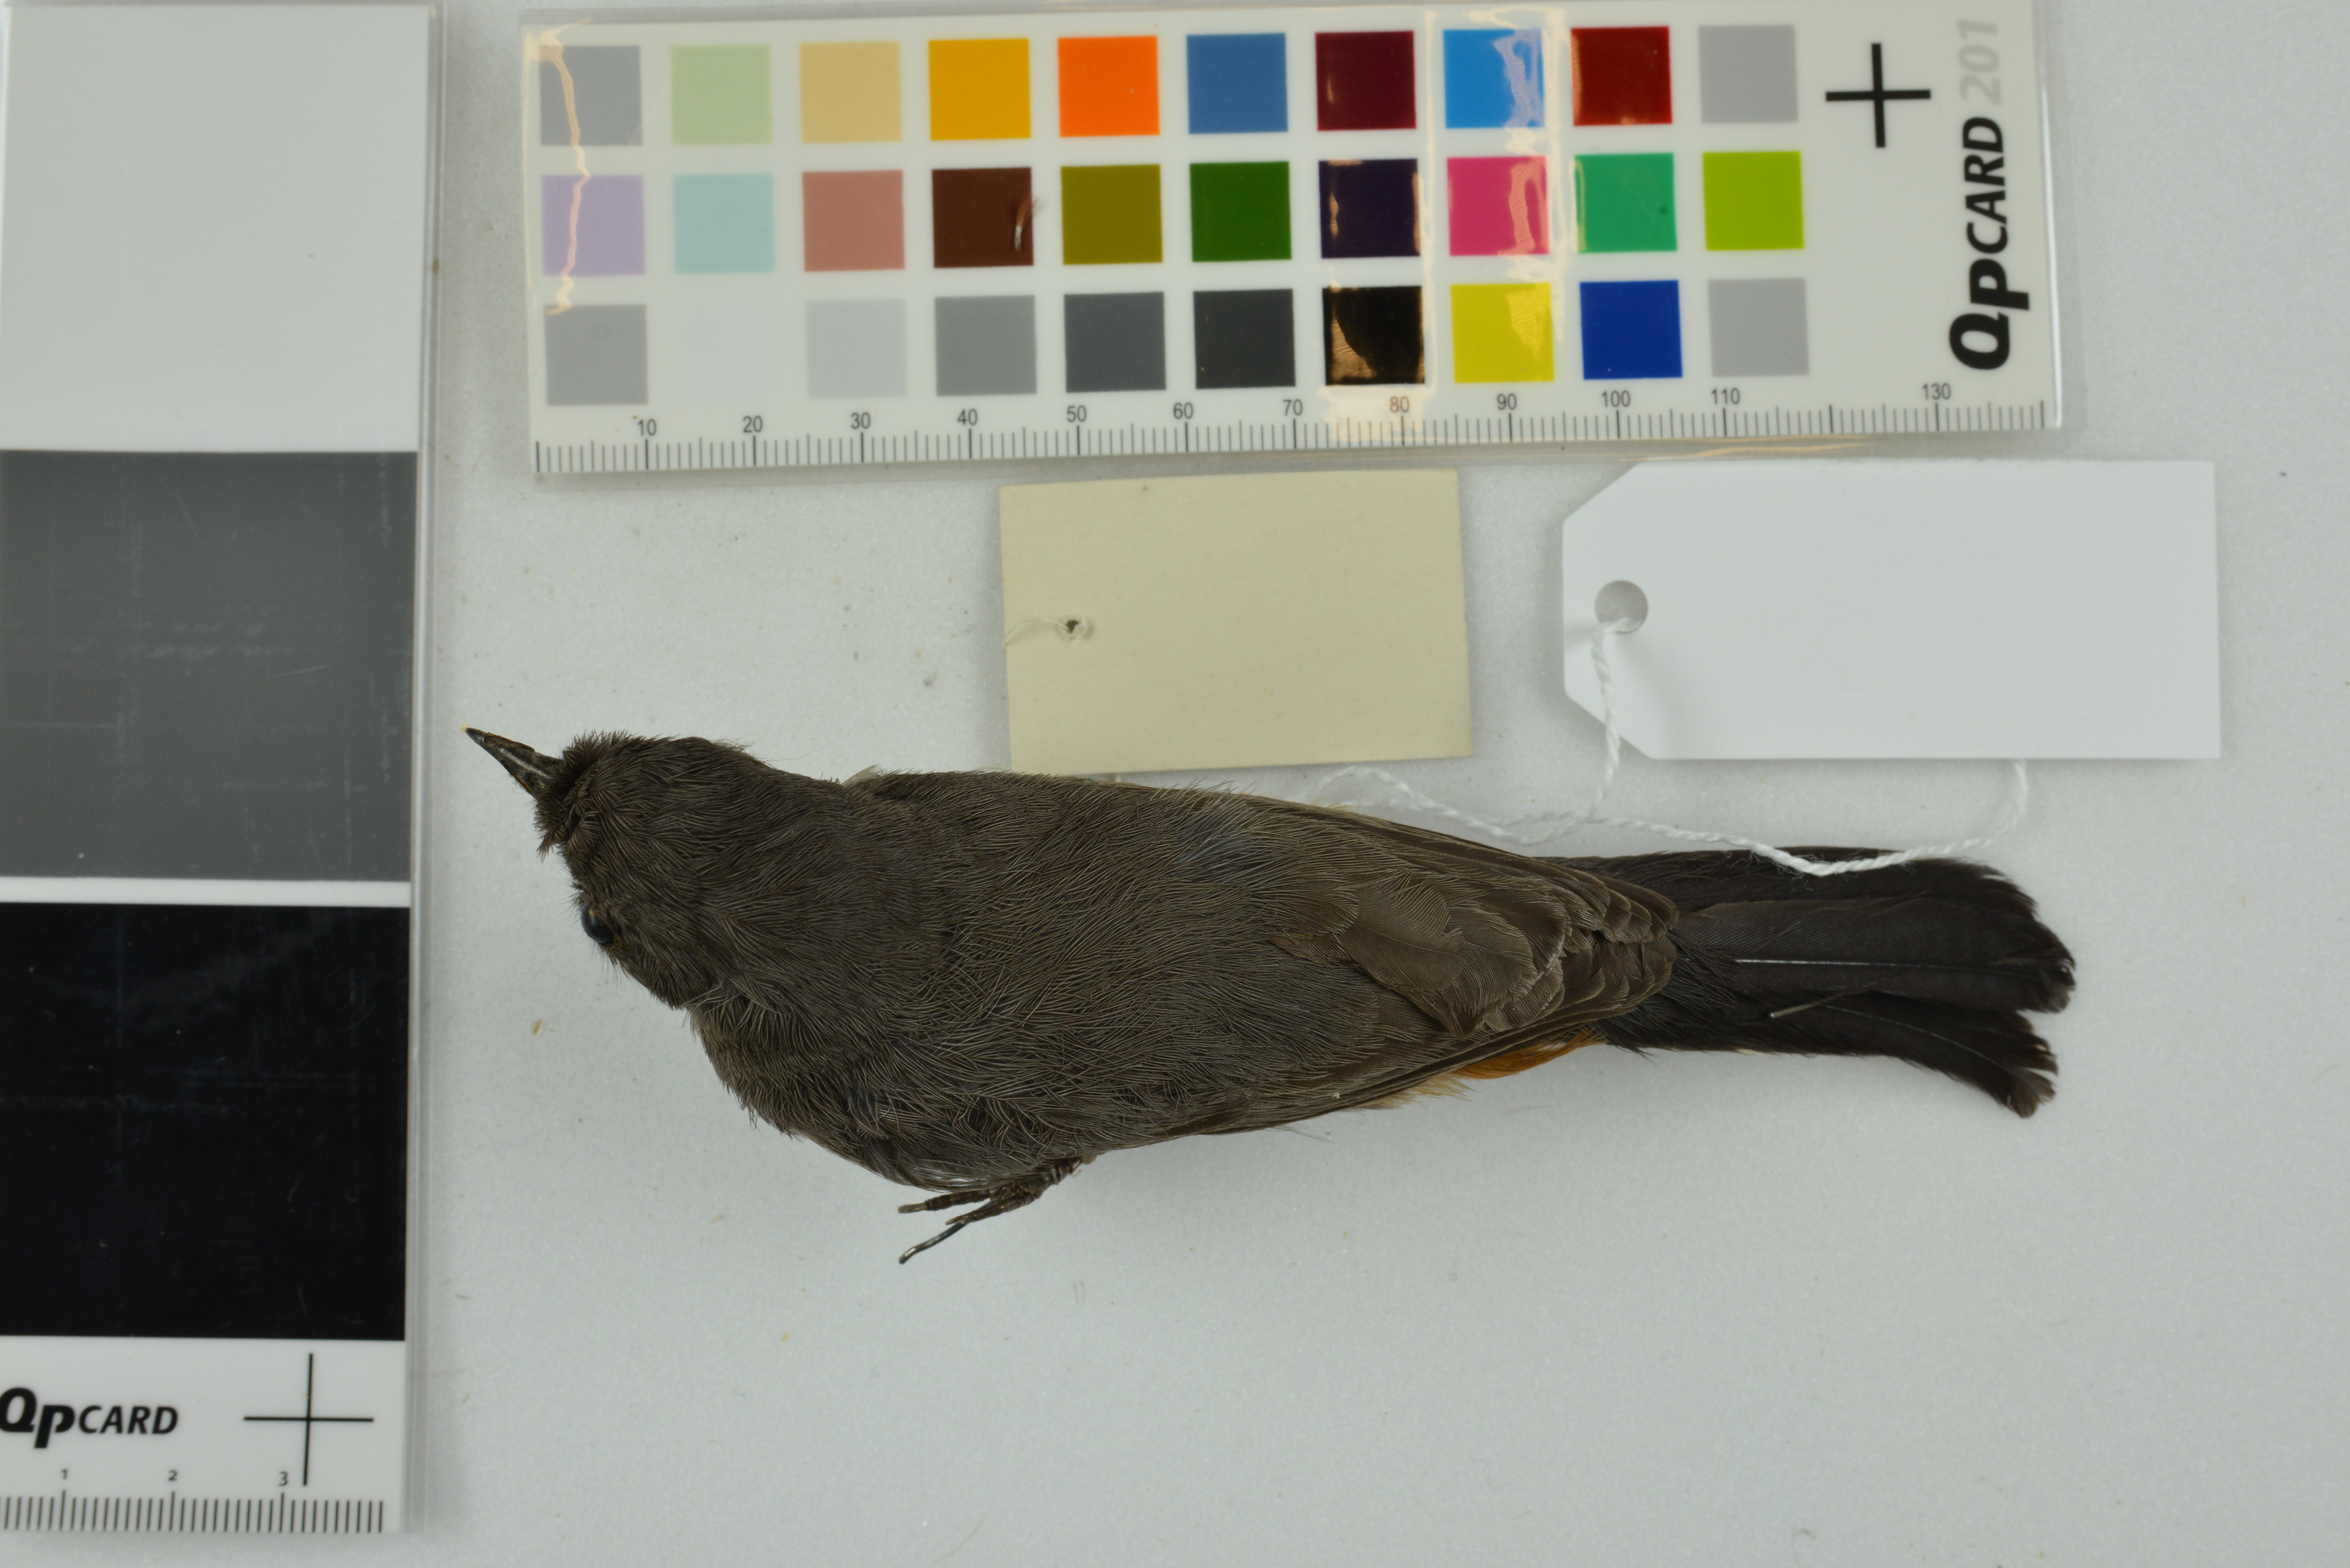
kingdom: Animalia
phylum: Chordata
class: Aves
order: Passeriformes
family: Sylviidae
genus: Curruca
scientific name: Curruca subcoerulea
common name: Chestnut-vented warbler
